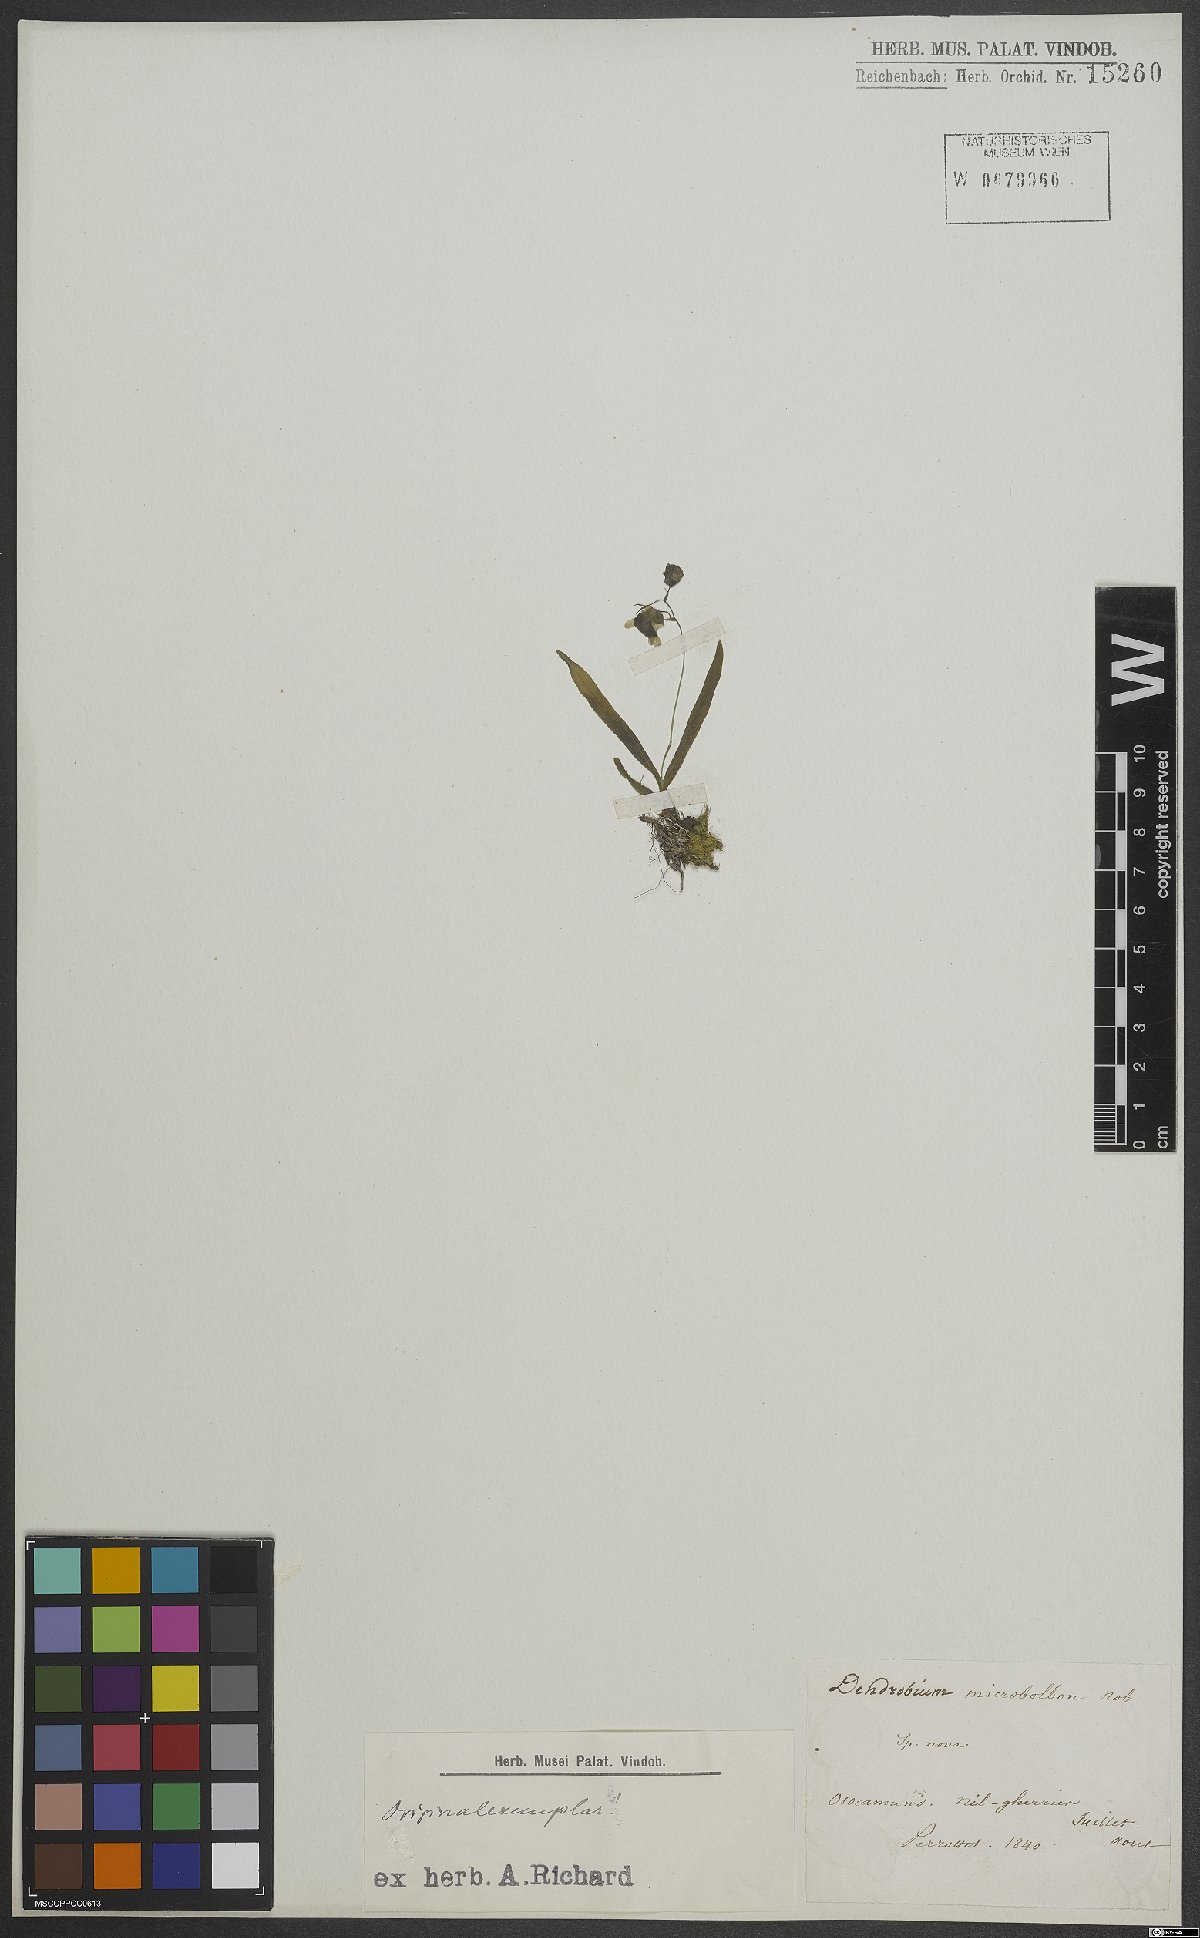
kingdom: Plantae
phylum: Tracheophyta
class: Liliopsida
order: Asparagales
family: Orchidaceae
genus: Dendrobium
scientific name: Dendrobium microbulbon
